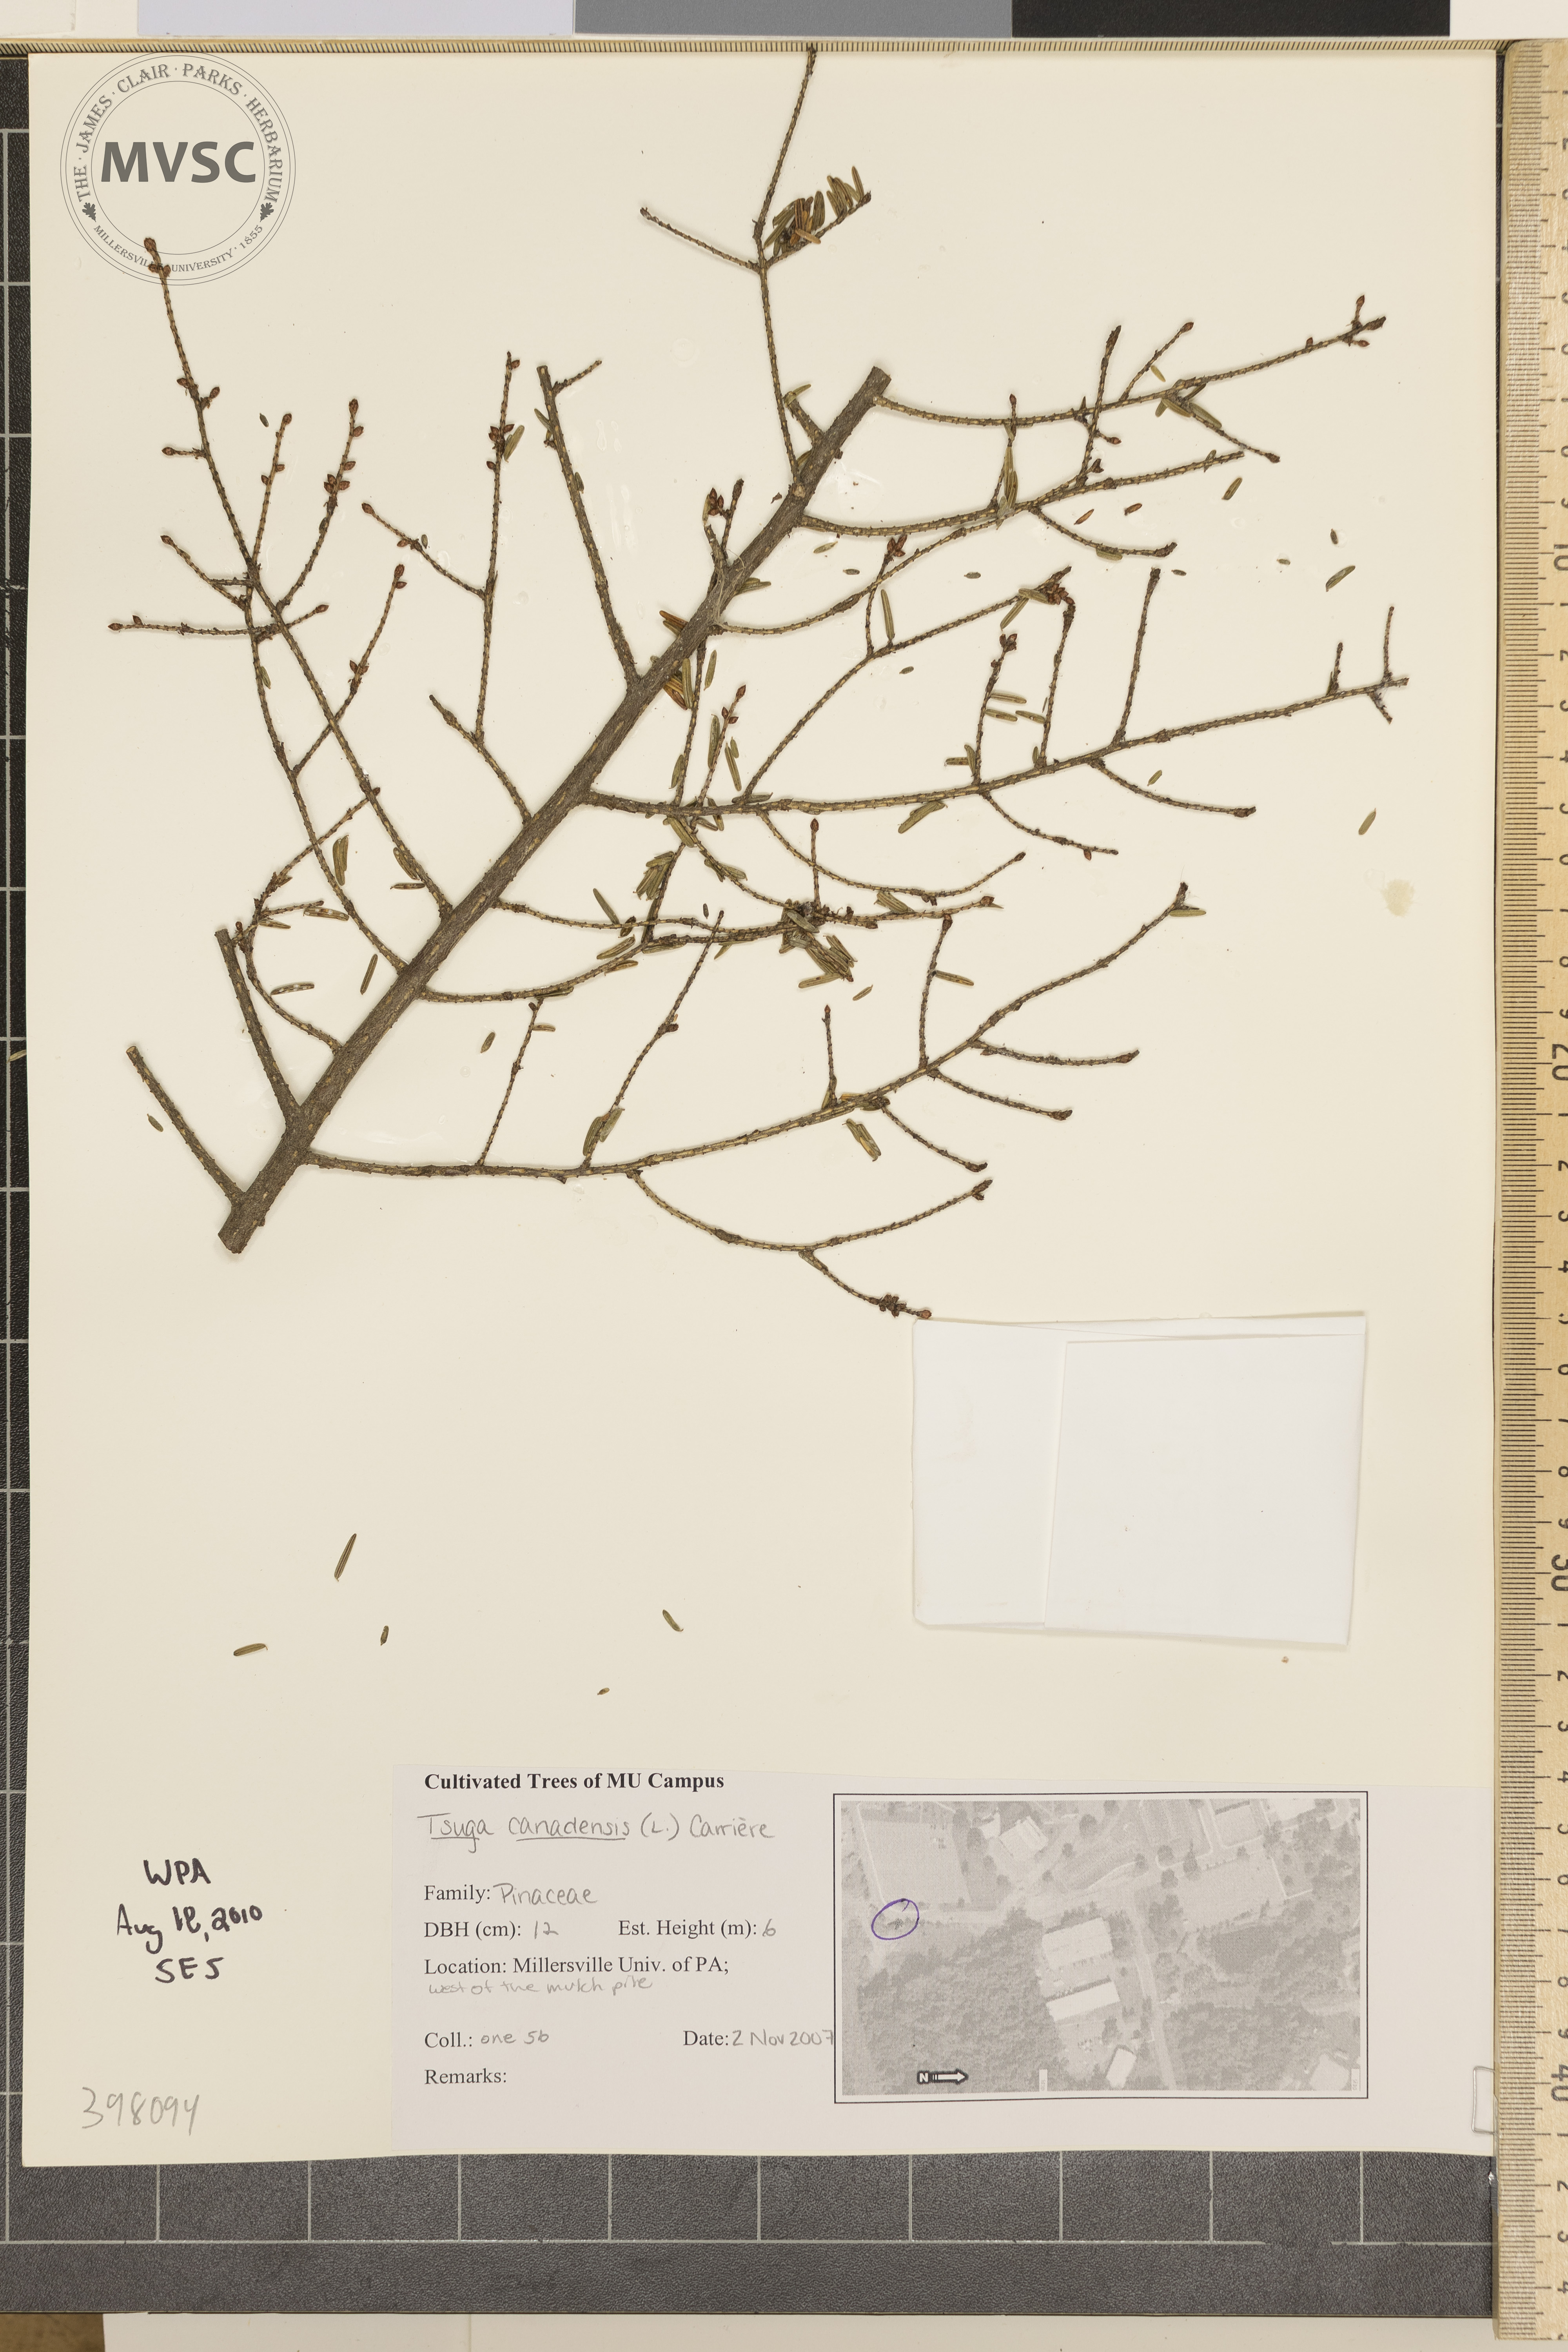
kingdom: Plantae
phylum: Tracheophyta
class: Pinopsida
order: Pinales
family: Pinaceae
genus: Tsuga
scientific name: Tsuga canadensis
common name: Canada hemlock
